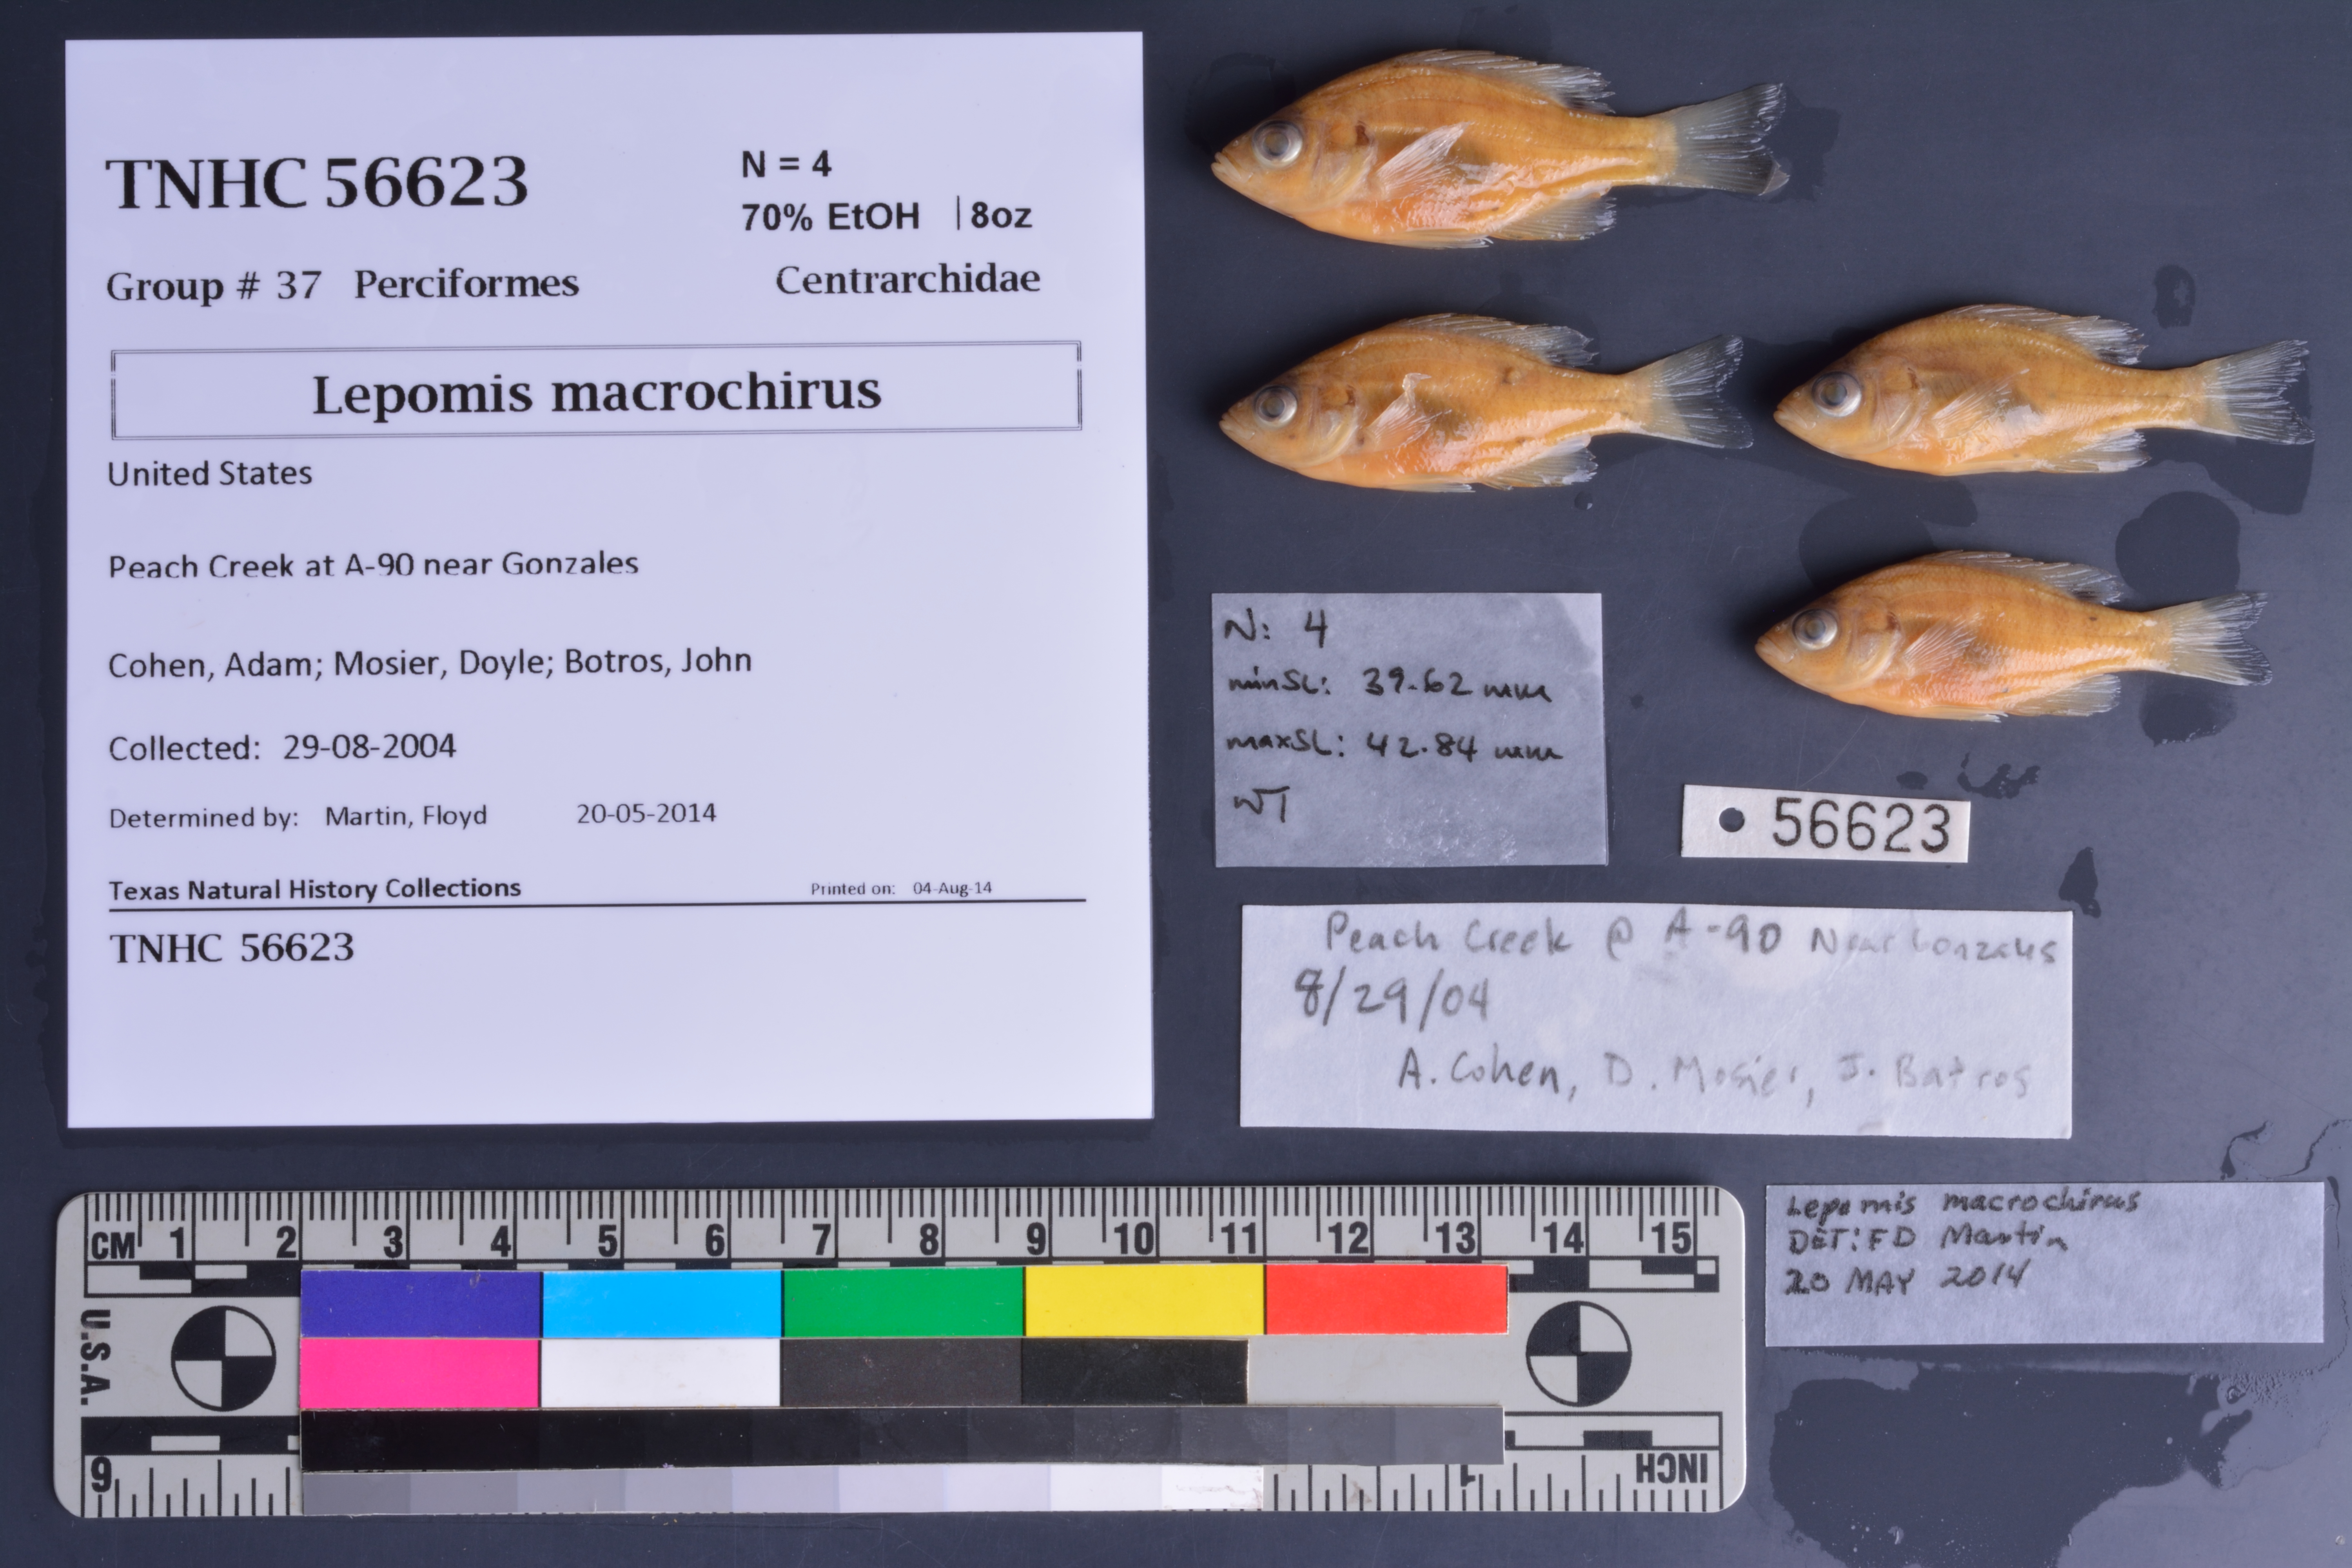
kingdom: Animalia
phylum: Chordata
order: Perciformes
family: Centrarchidae
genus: Lepomis
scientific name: Lepomis macrochirus
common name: Bluegill
